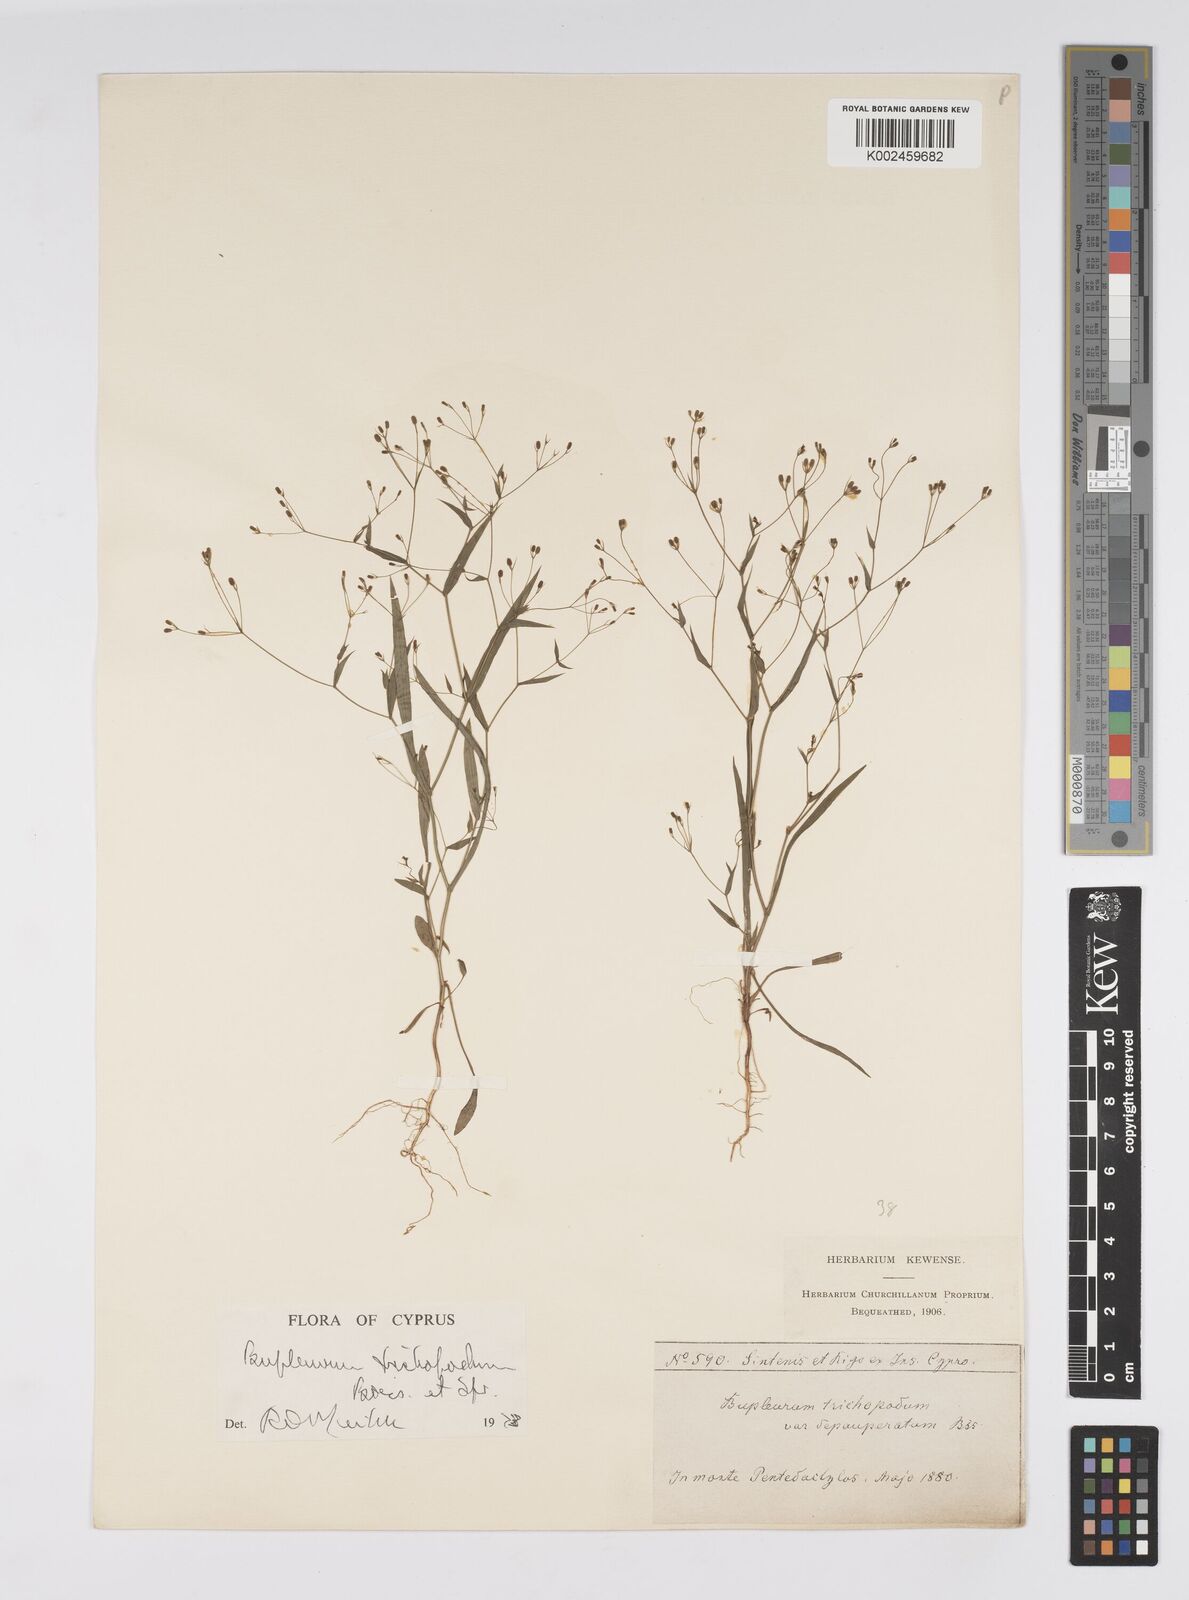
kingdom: Plantae
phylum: Tracheophyta
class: Magnoliopsida
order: Apiales
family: Apiaceae
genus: Bupleurum
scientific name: Bupleurum trichopodum
